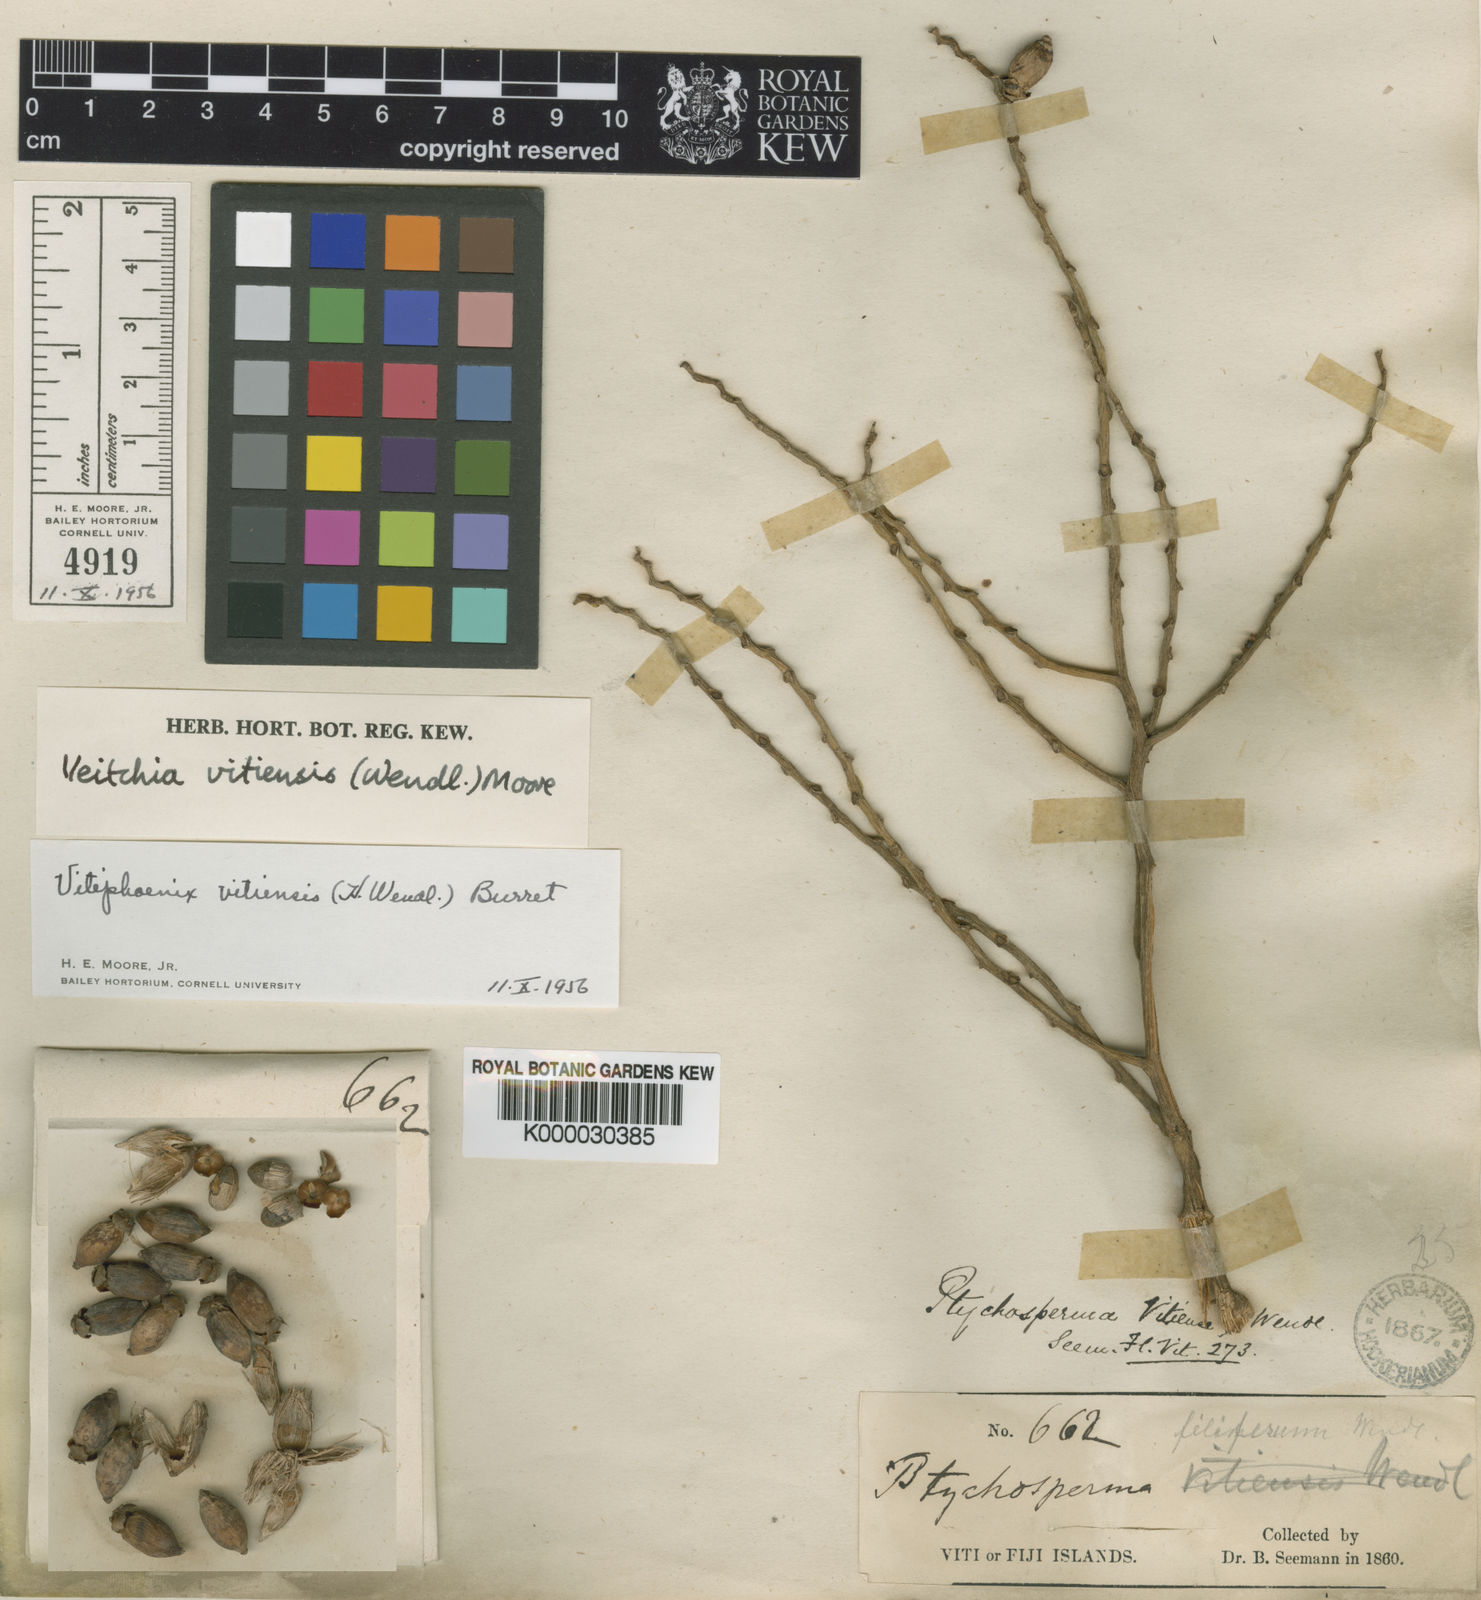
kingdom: Plantae
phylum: Tracheophyta
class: Liliopsida
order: Arecales
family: Arecaceae
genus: Veitchia
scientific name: Veitchia vitiensis
